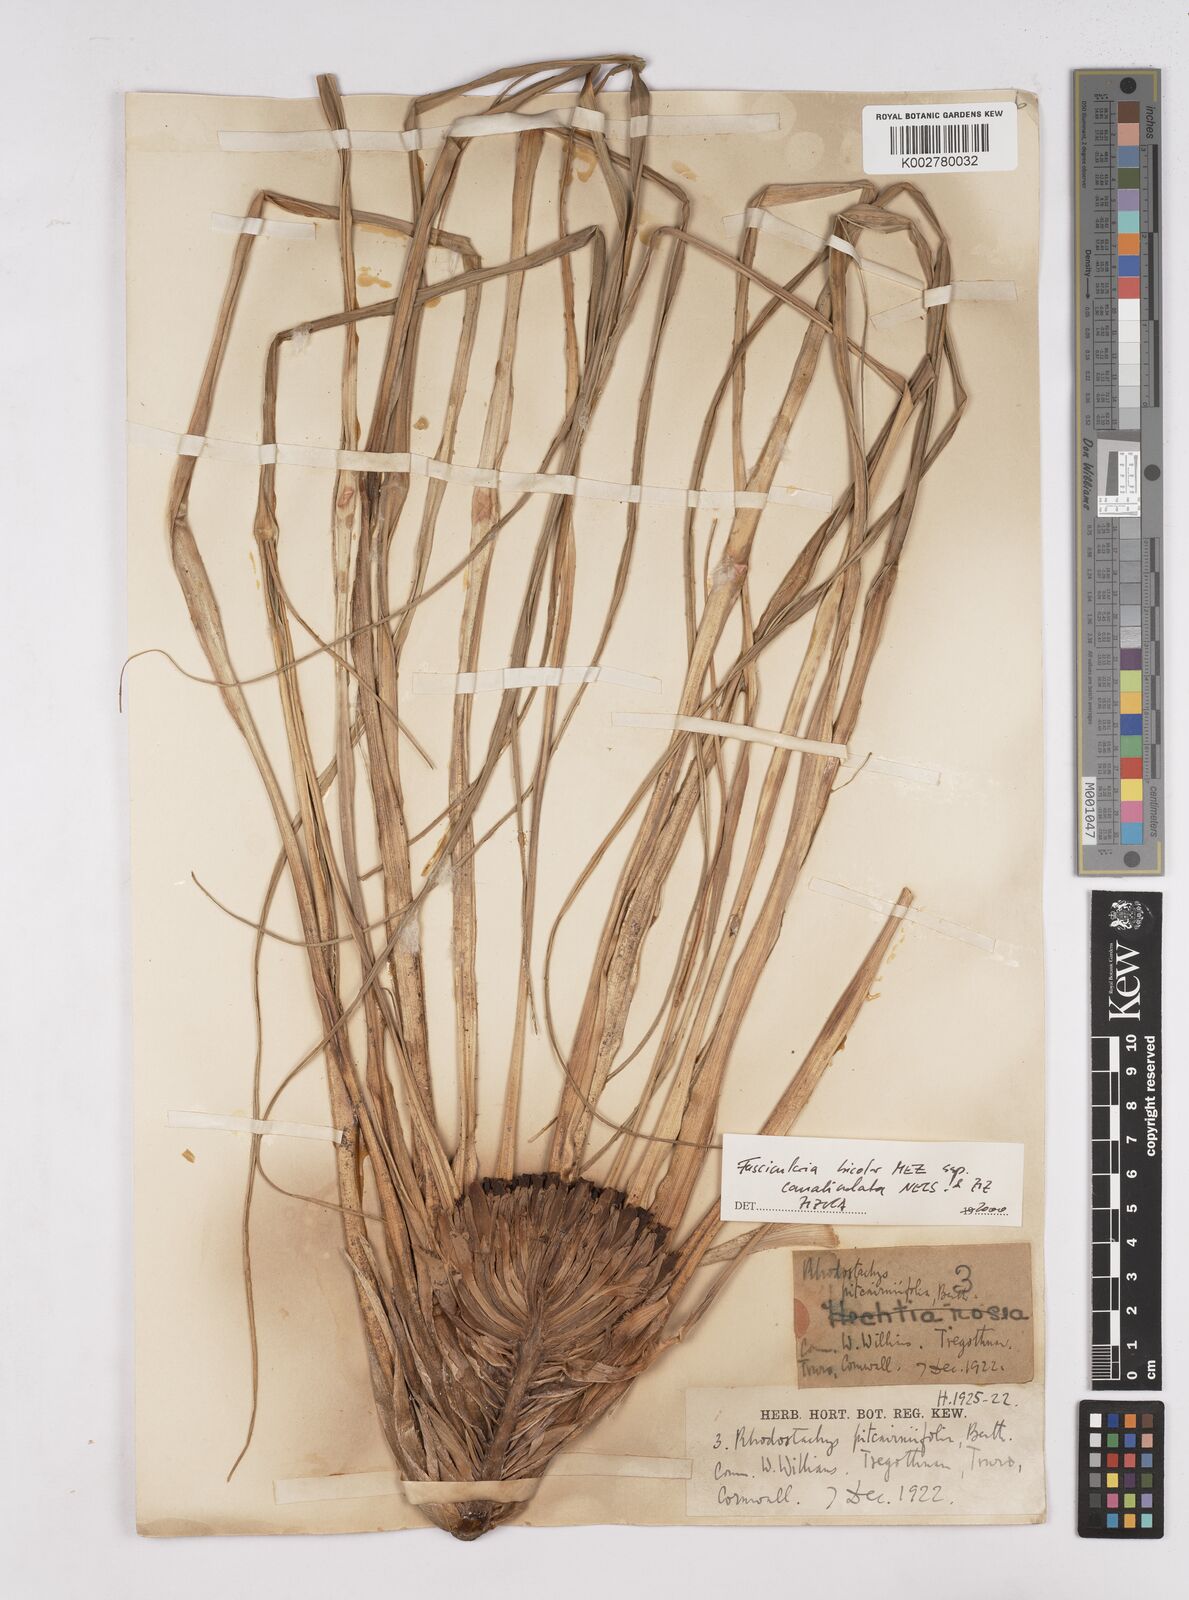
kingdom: Plantae
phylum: Tracheophyta
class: Liliopsida
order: Poales
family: Bromeliaceae
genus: Hechtia
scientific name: Hechtia pitcairniifolia
